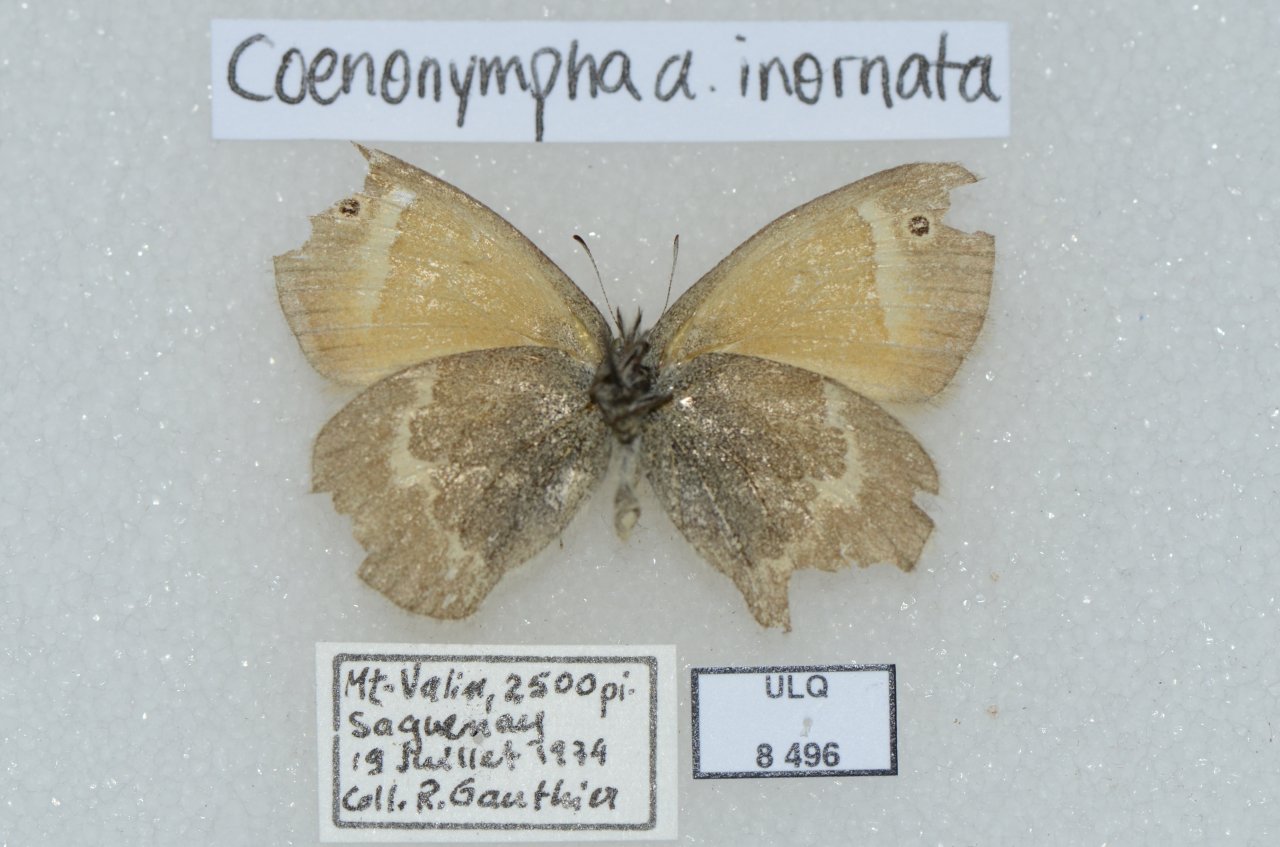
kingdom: Animalia
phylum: Arthropoda
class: Insecta
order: Lepidoptera
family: Nymphalidae
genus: Coenonympha
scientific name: Coenonympha tullia
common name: Large Heath
